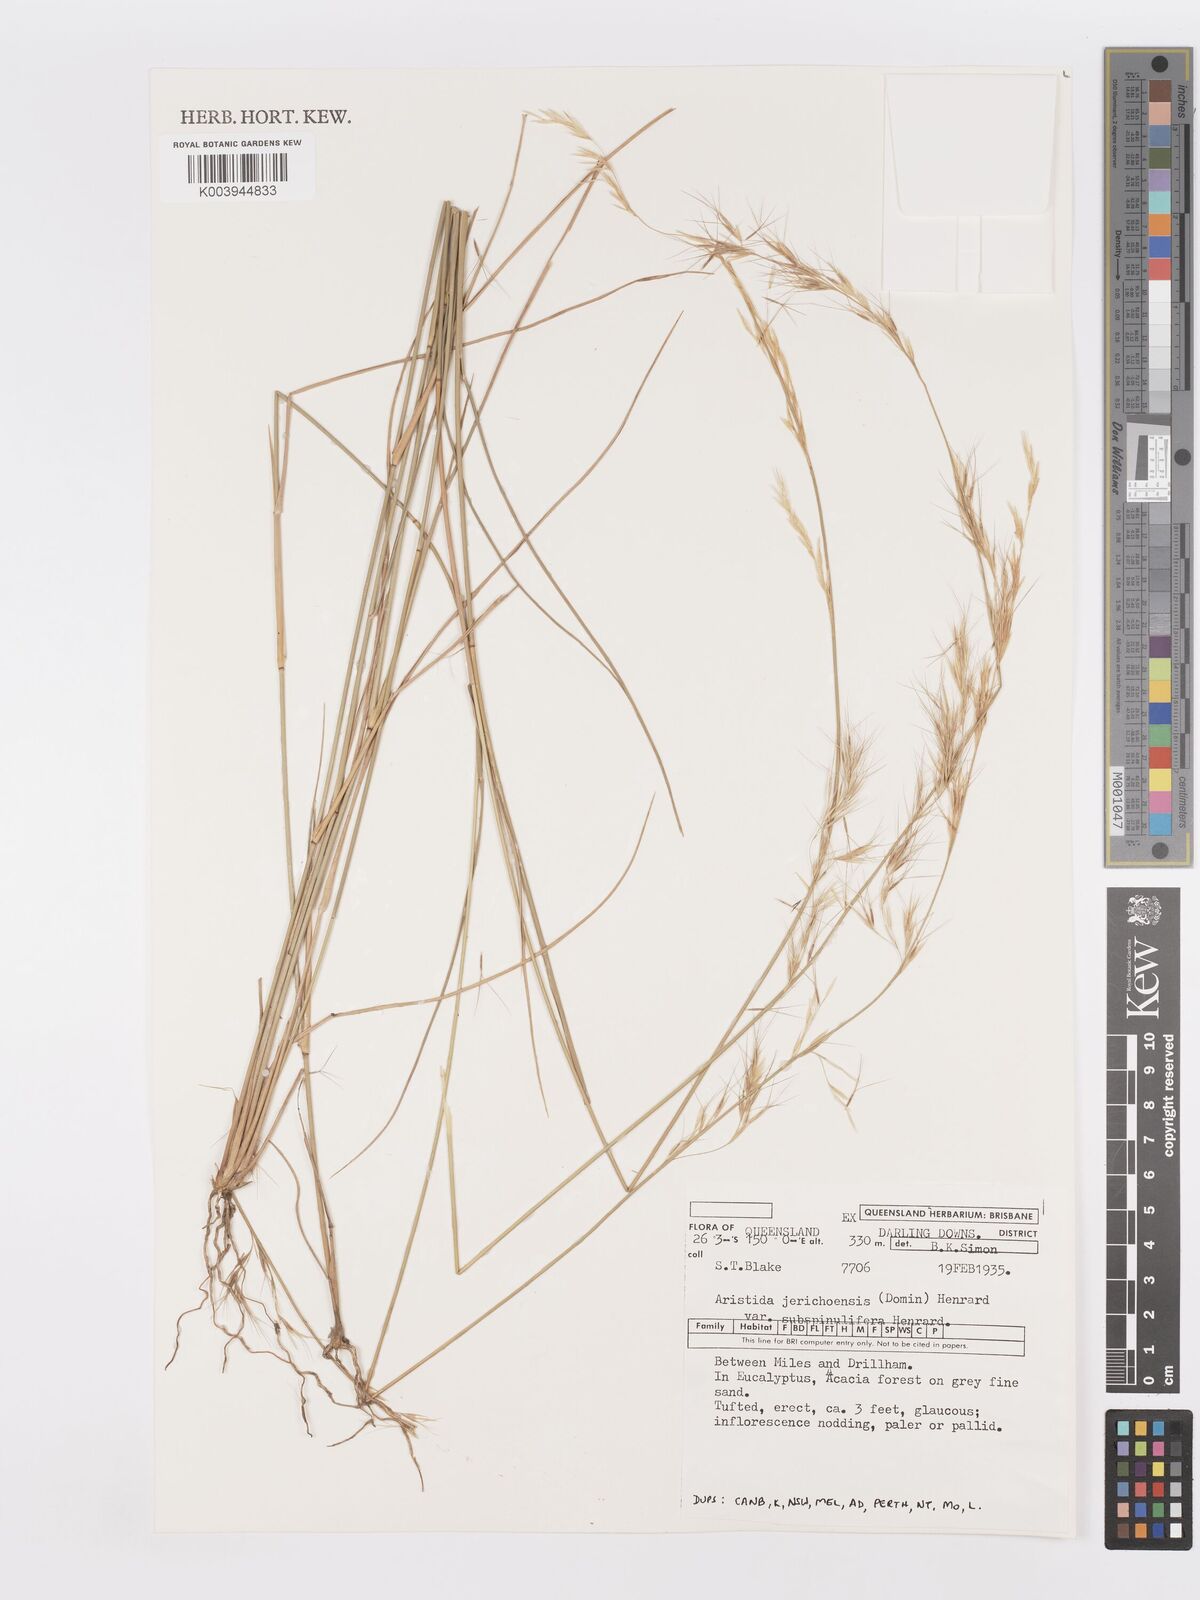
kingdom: Plantae
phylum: Tracheophyta
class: Liliopsida
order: Poales
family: Poaceae
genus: Aristida
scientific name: Aristida jerichoensis
